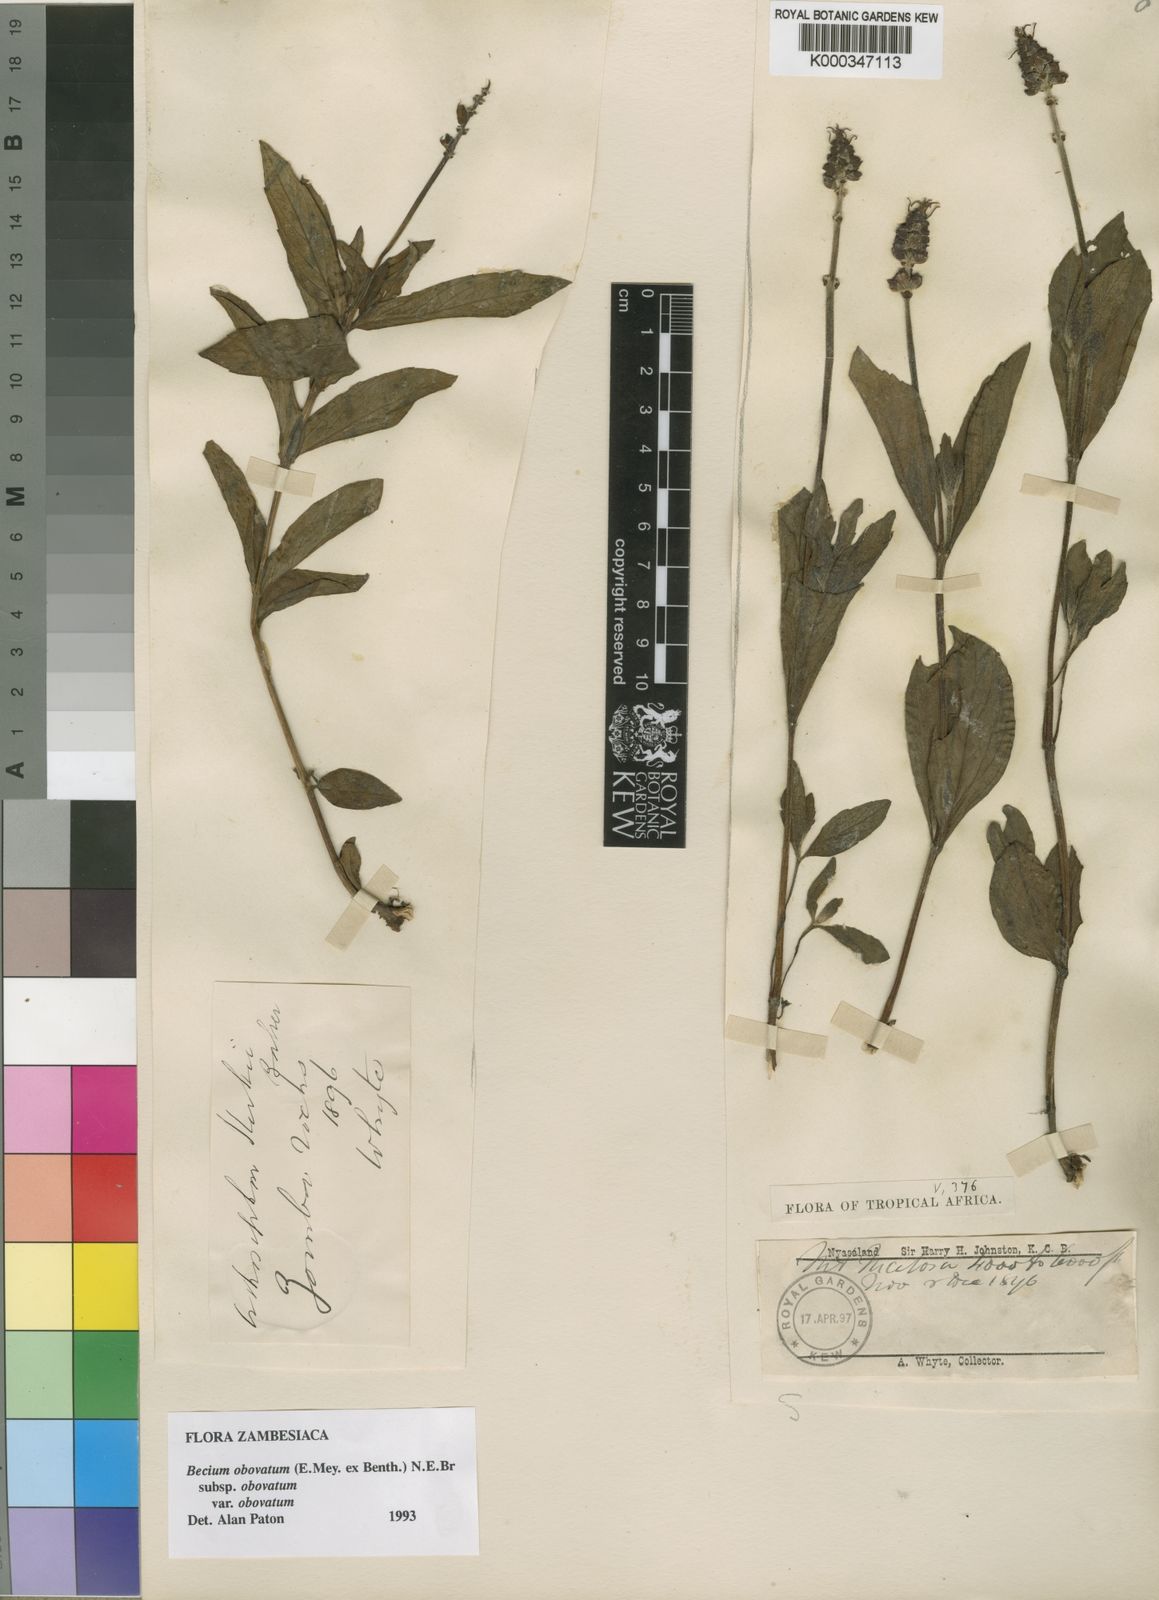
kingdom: Plantae
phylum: Tracheophyta
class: Magnoliopsida
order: Lamiales
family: Lamiaceae
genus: Ocimum
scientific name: Ocimum obovatum
